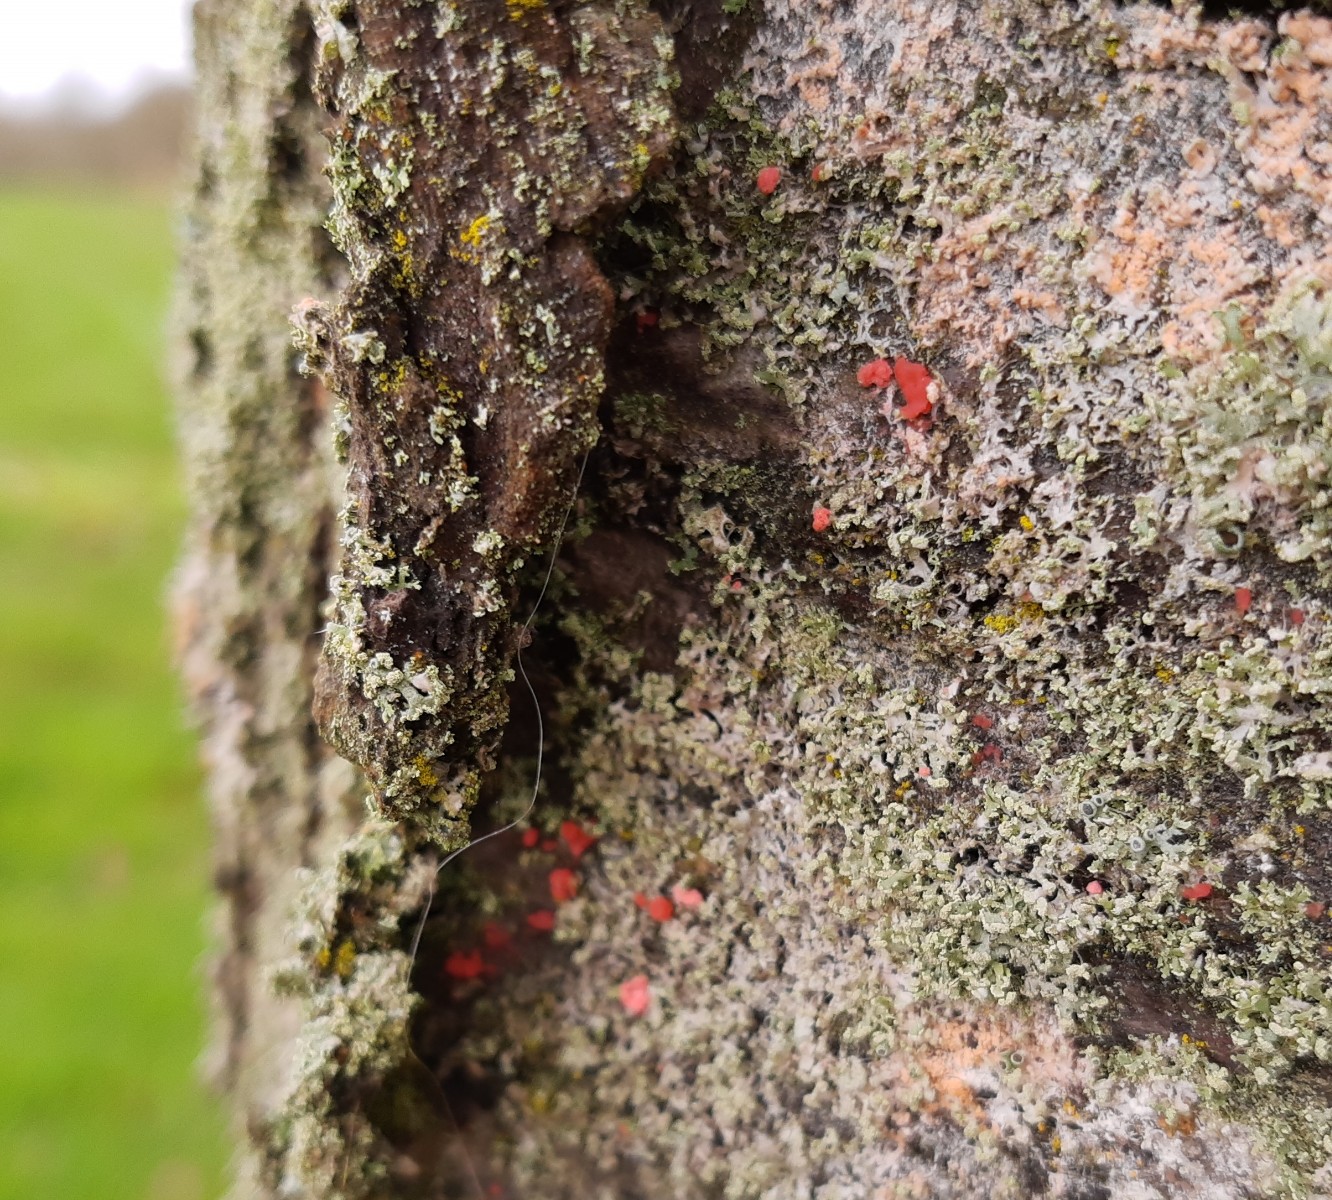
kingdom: Fungi
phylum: Ascomycota
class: Sordariomycetes
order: Hypocreales
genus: Illosporiopsis
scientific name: Illosporiopsis christiansenii
